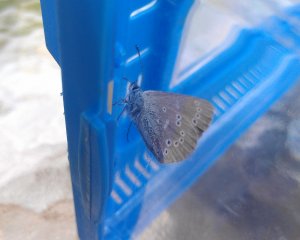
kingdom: Animalia
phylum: Arthropoda
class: Insecta
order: Lepidoptera
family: Lycaenidae
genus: Glaucopsyche
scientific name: Glaucopsyche lygdamus
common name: Silvery Blue
